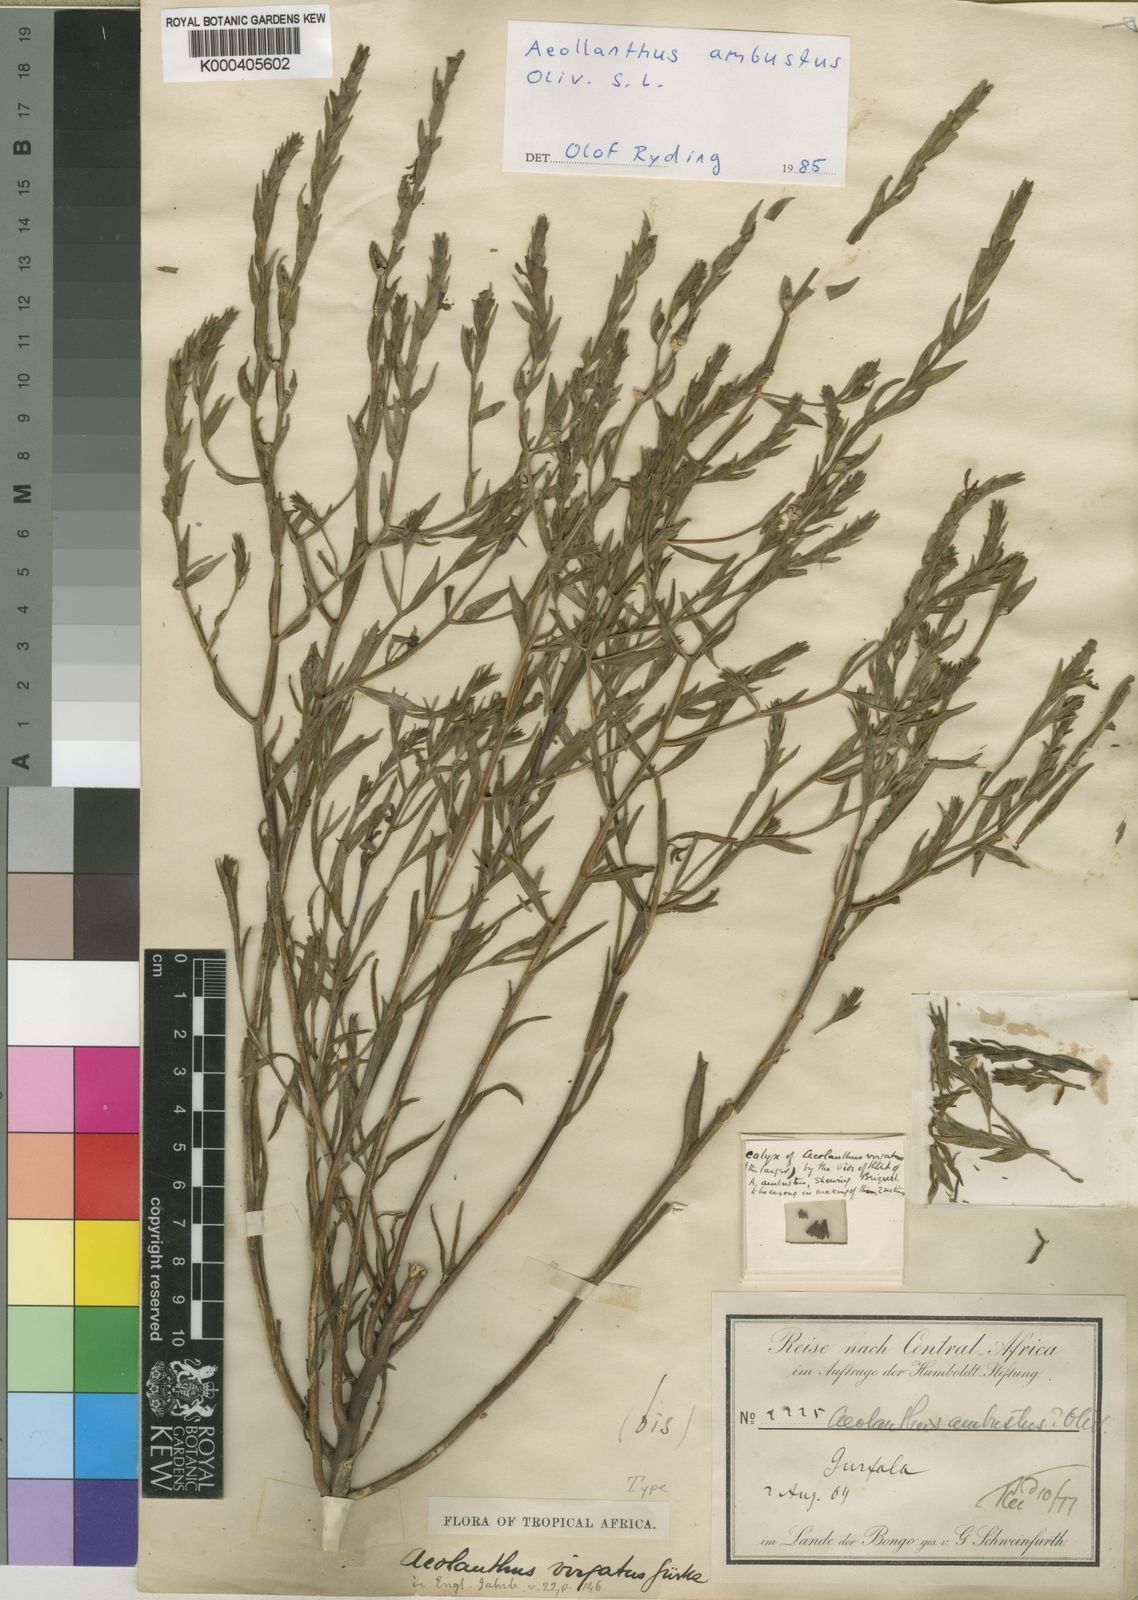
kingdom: Plantae
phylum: Tracheophyta
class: Magnoliopsida
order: Lamiales
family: Lamiaceae
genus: Aeollanthus
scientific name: Aeollanthus ambustus
